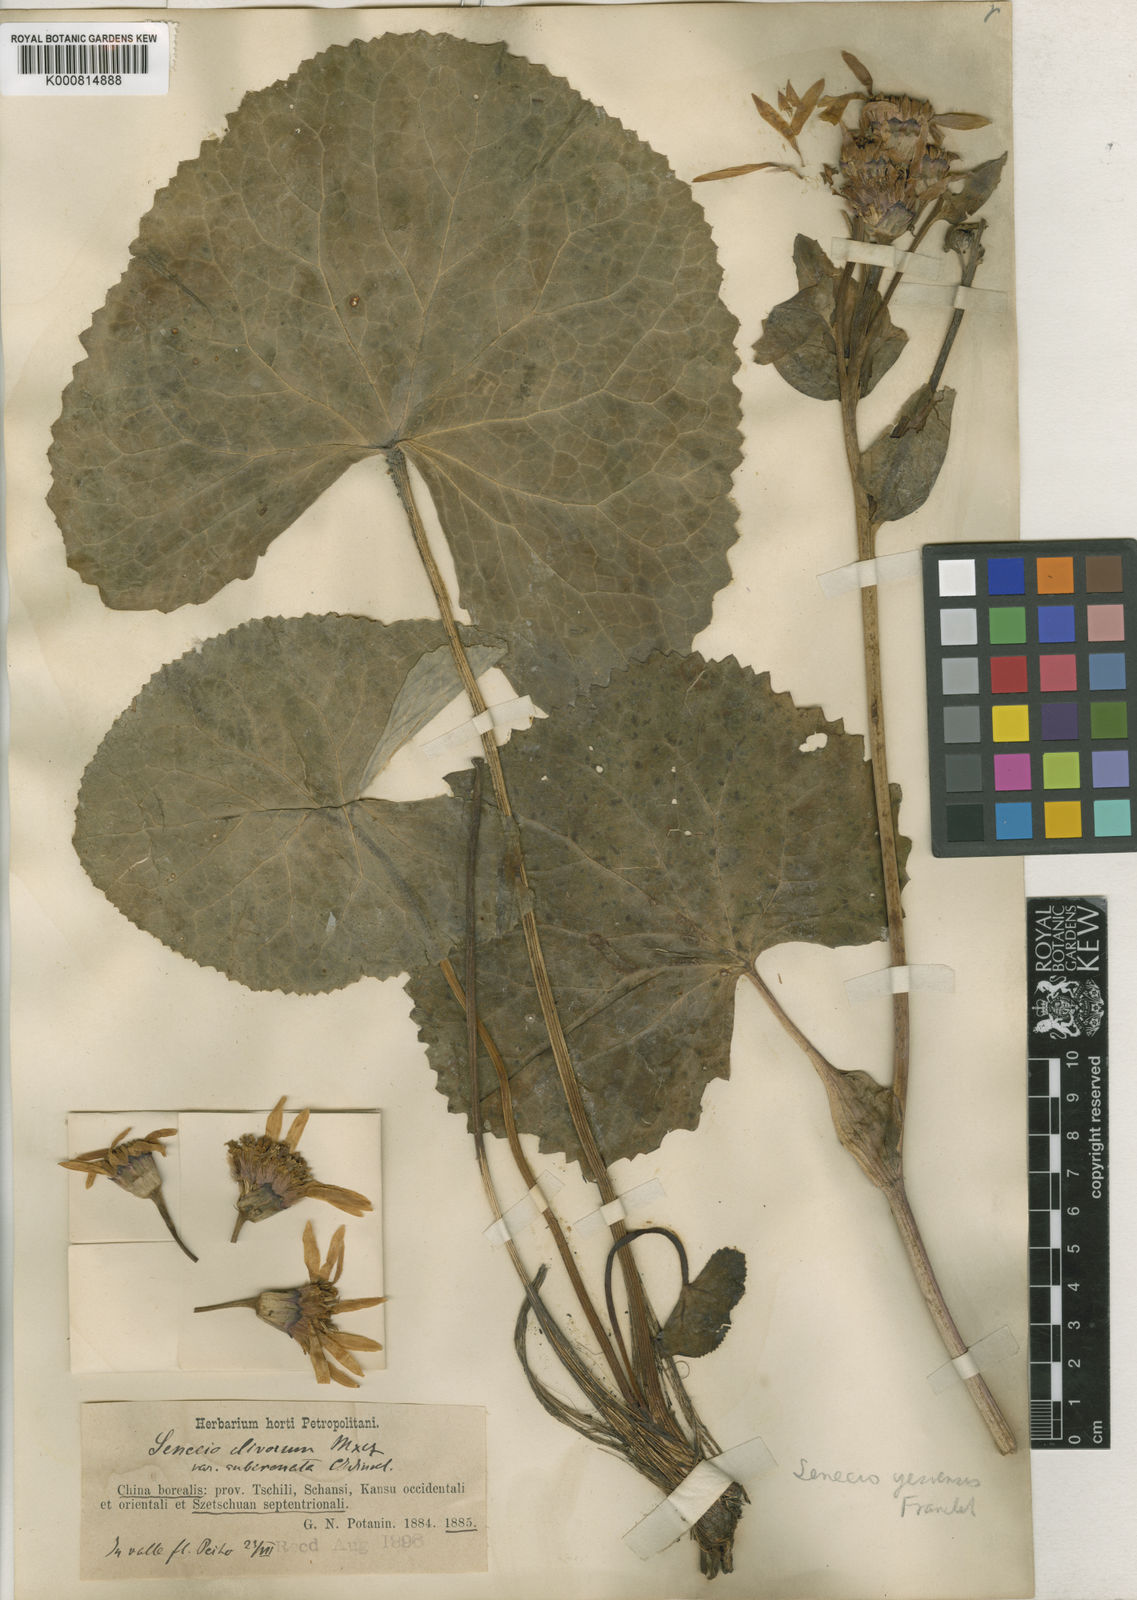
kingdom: Plantae
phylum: Tracheophyta
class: Magnoliopsida
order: Asterales
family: Asteraceae
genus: Ligularia
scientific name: Ligularia hodgsonii
